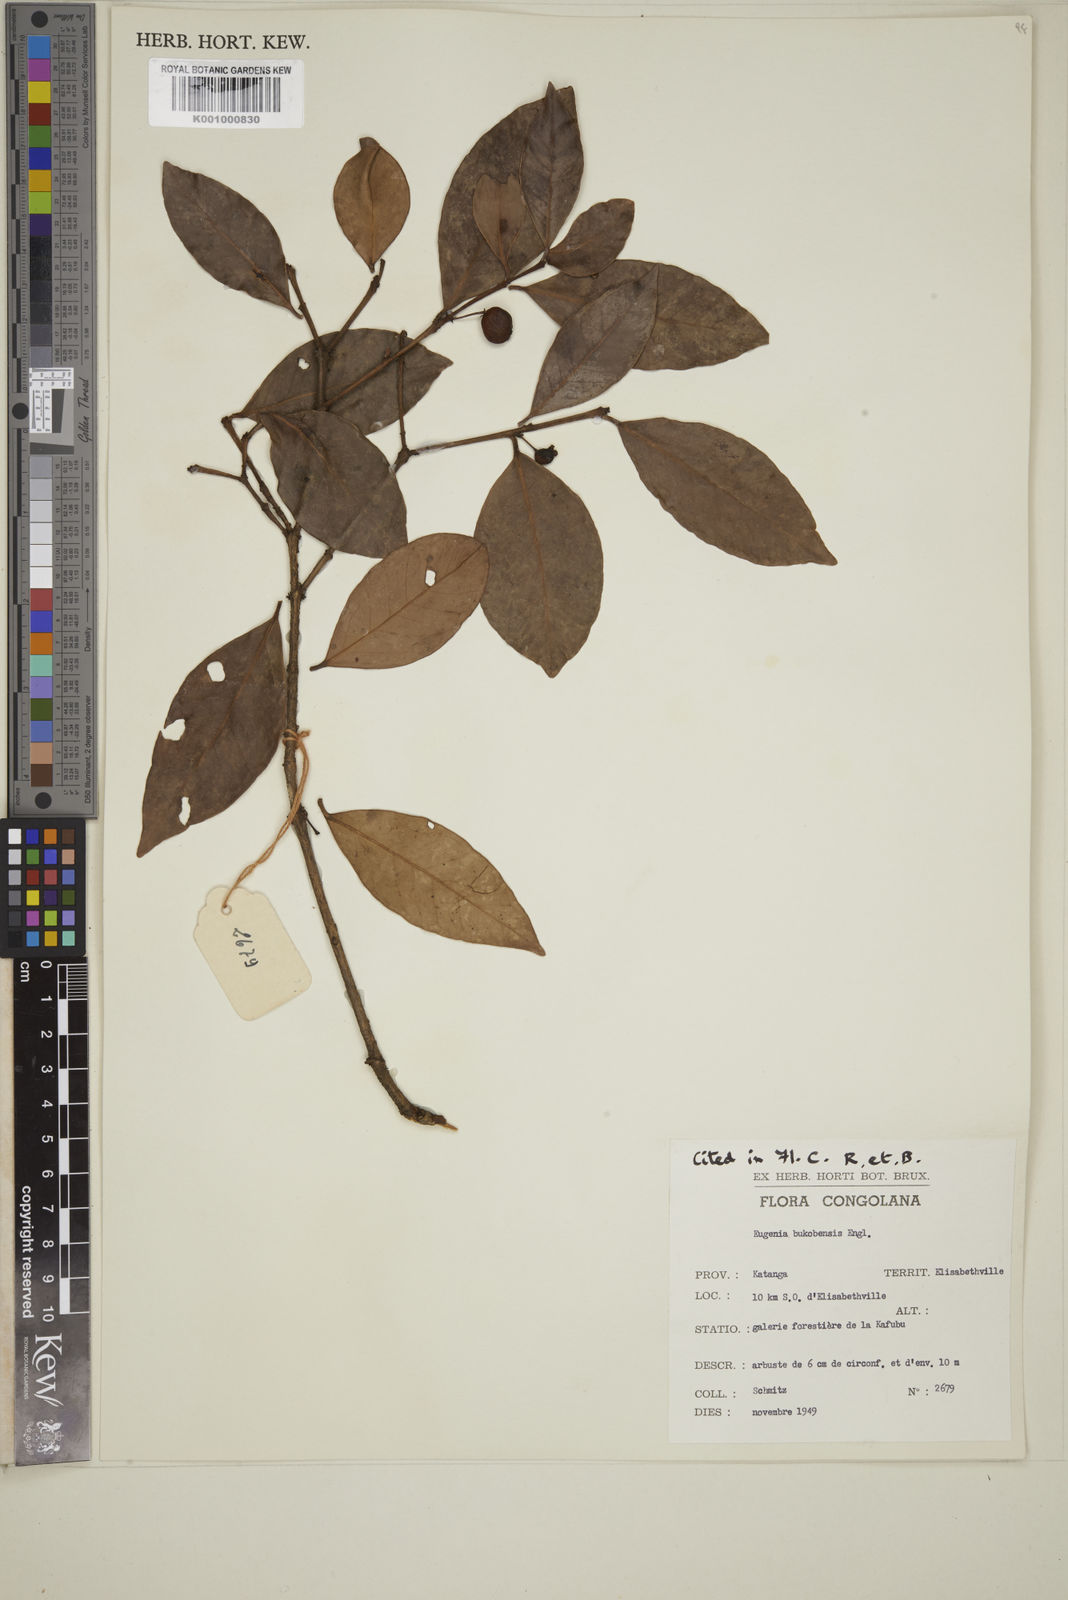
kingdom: Plantae
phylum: Tracheophyta
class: Magnoliopsida
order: Myrtales
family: Myrtaceae
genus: Eugenia
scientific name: Eugenia bukobensis
